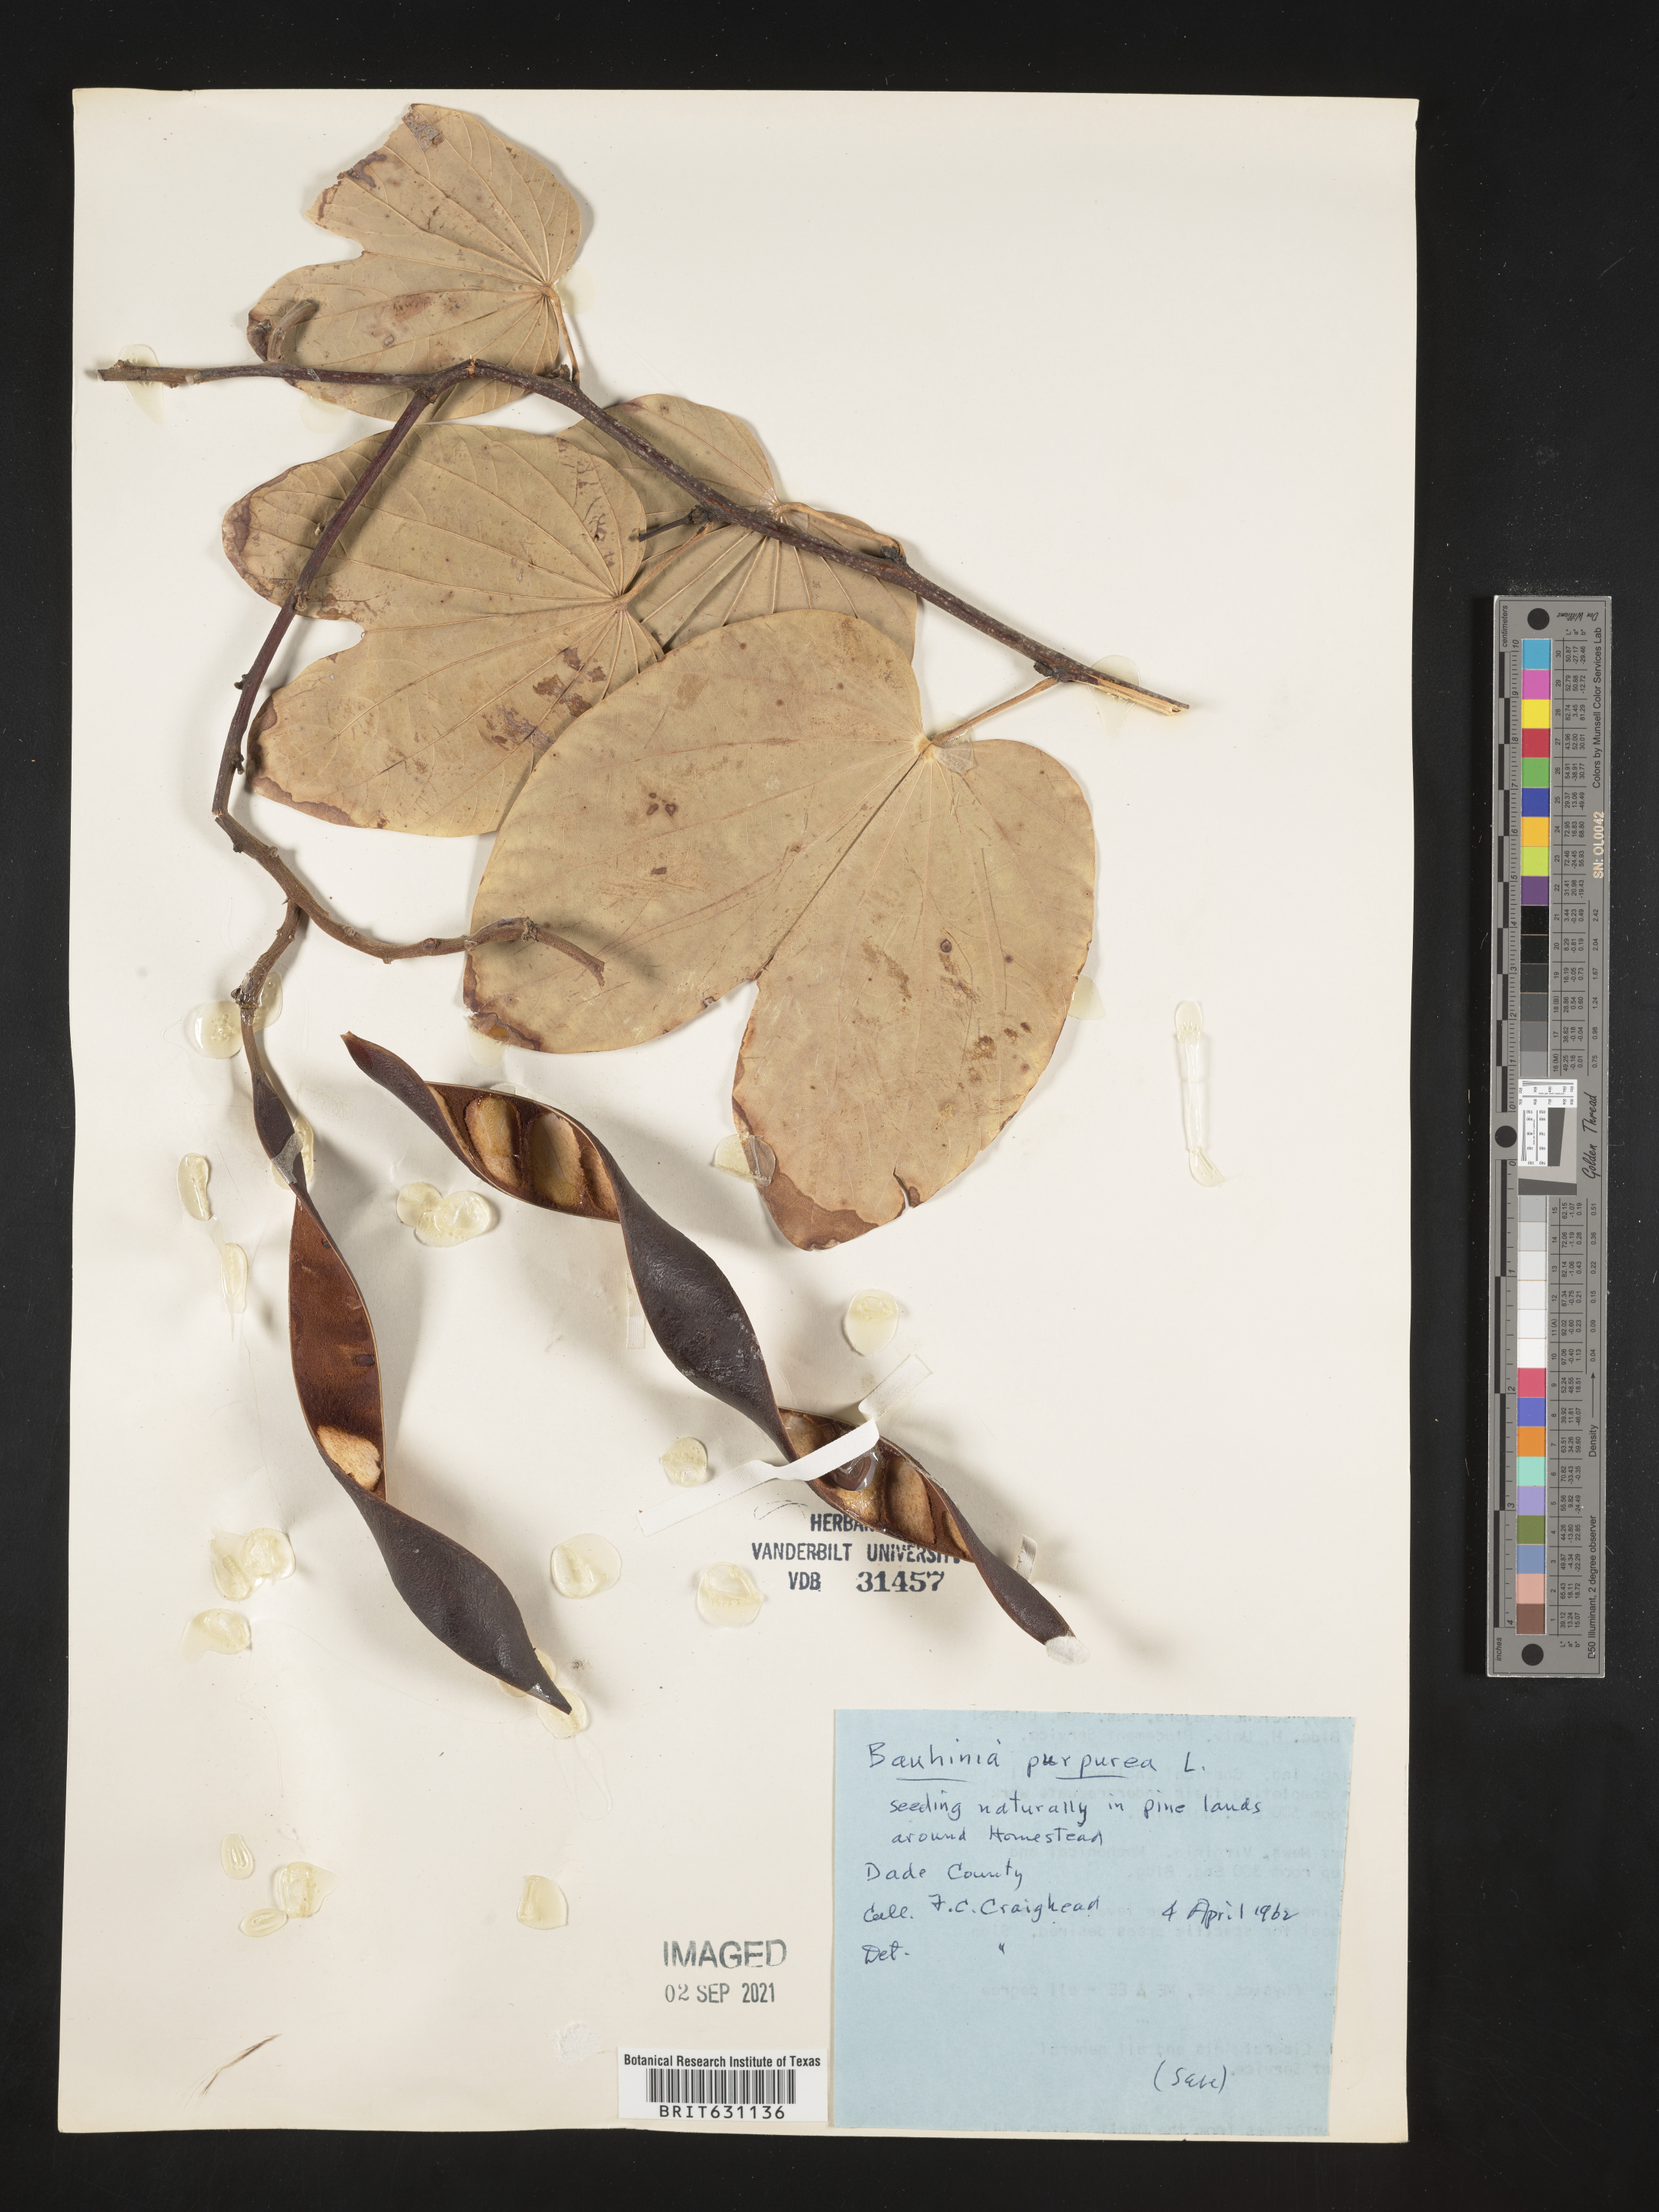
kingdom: Plantae
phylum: Tracheophyta
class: Magnoliopsida
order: Fabales
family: Fabaceae
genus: Bauhinia
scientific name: Bauhinia
